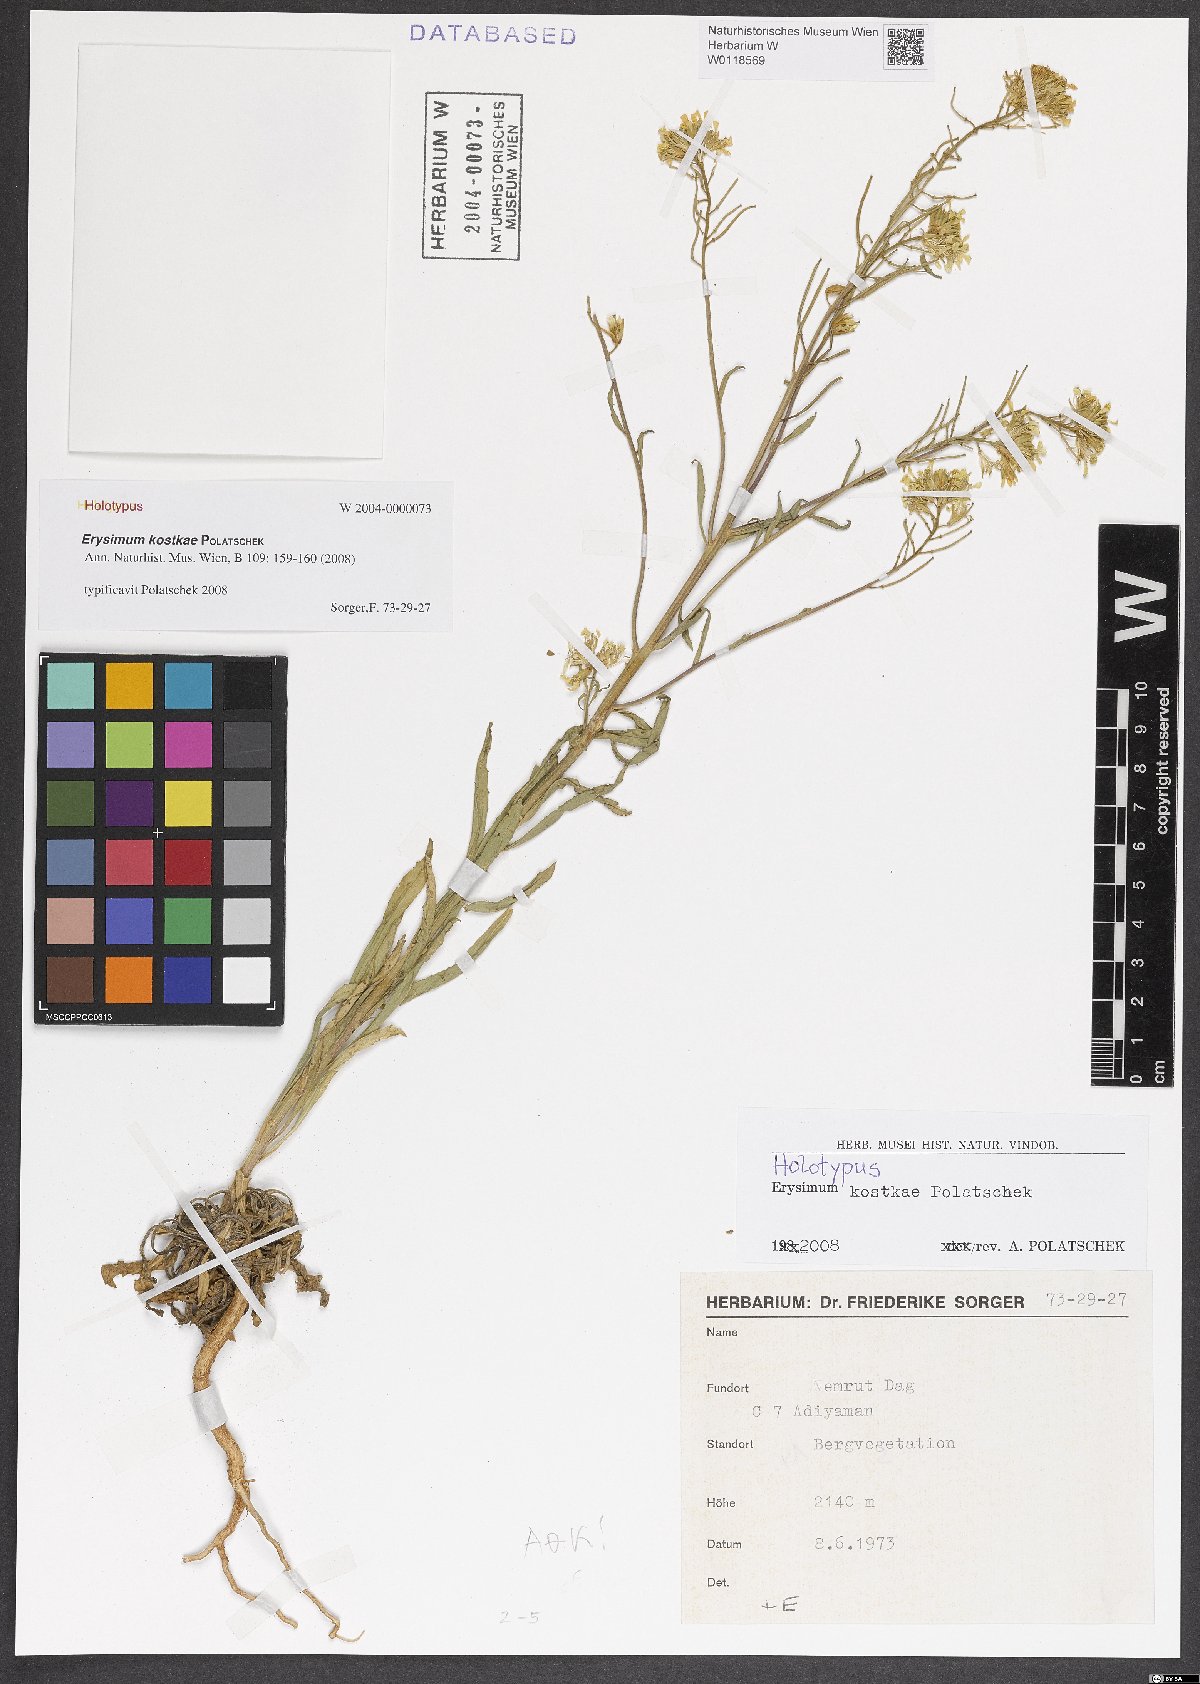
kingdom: Plantae
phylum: Tracheophyta
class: Magnoliopsida
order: Brassicales
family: Brassicaceae
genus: Erysimum
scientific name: Erysimum kostkae
